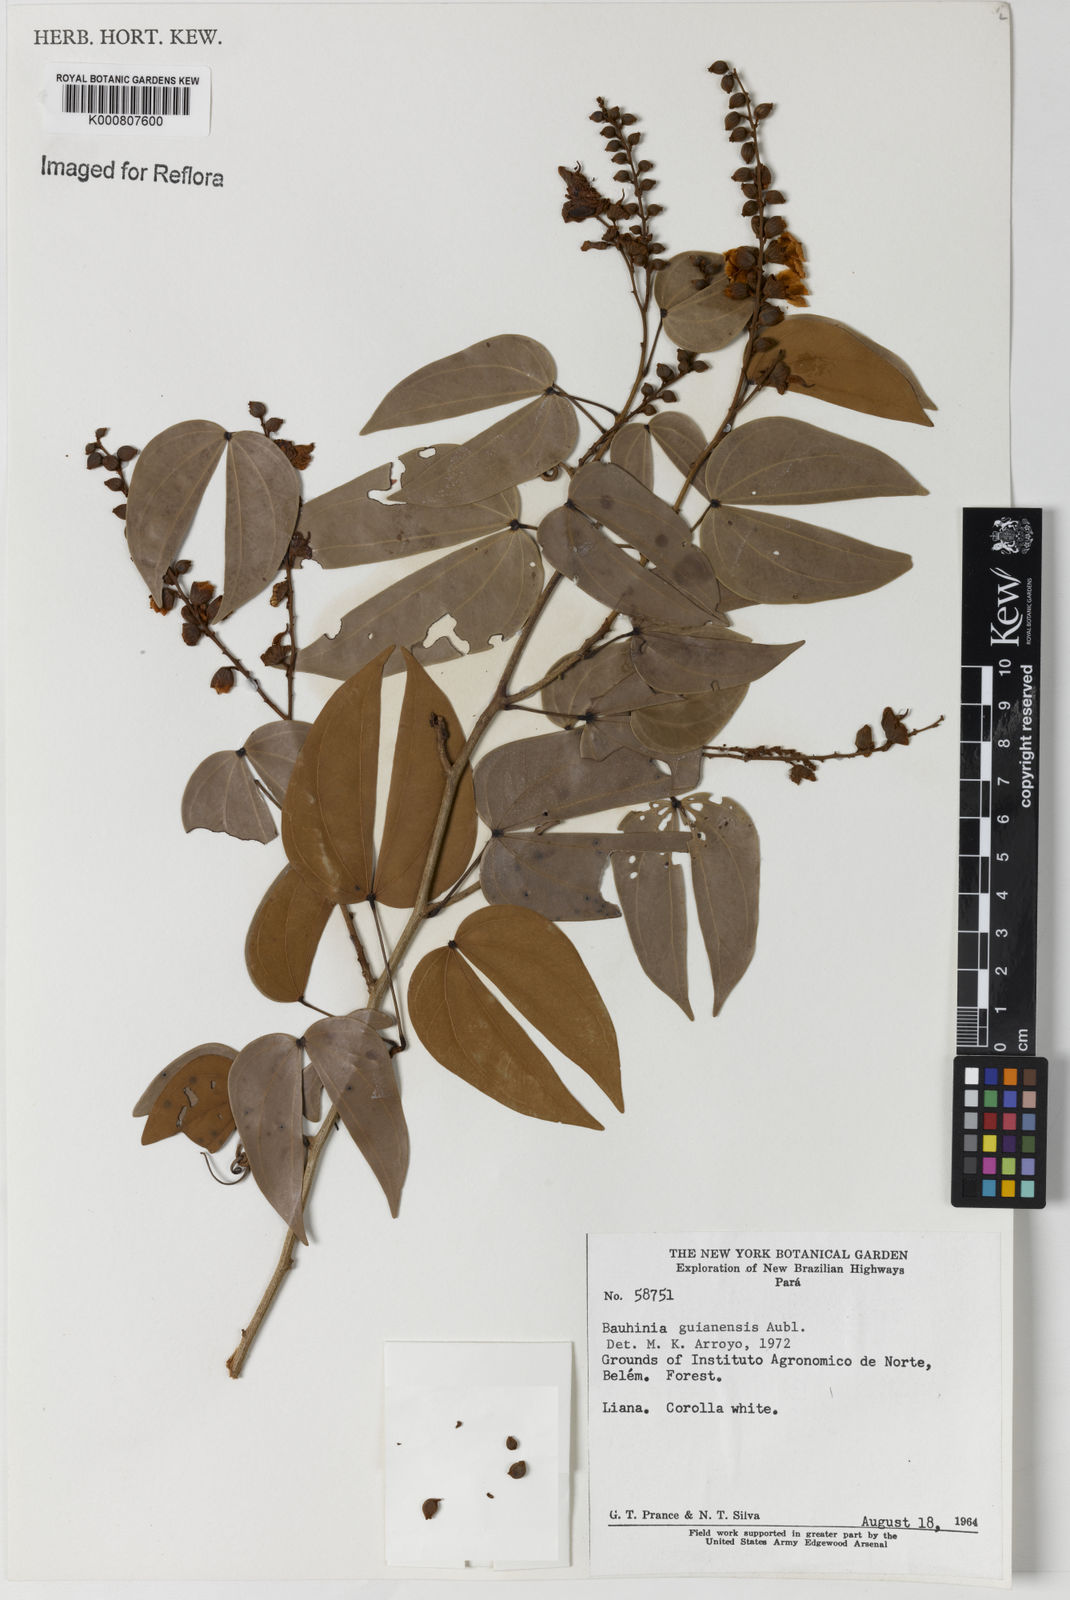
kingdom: Plantae
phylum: Tracheophyta
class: Magnoliopsida
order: Fabales
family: Fabaceae
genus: Schnella
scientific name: Schnella guianensis
